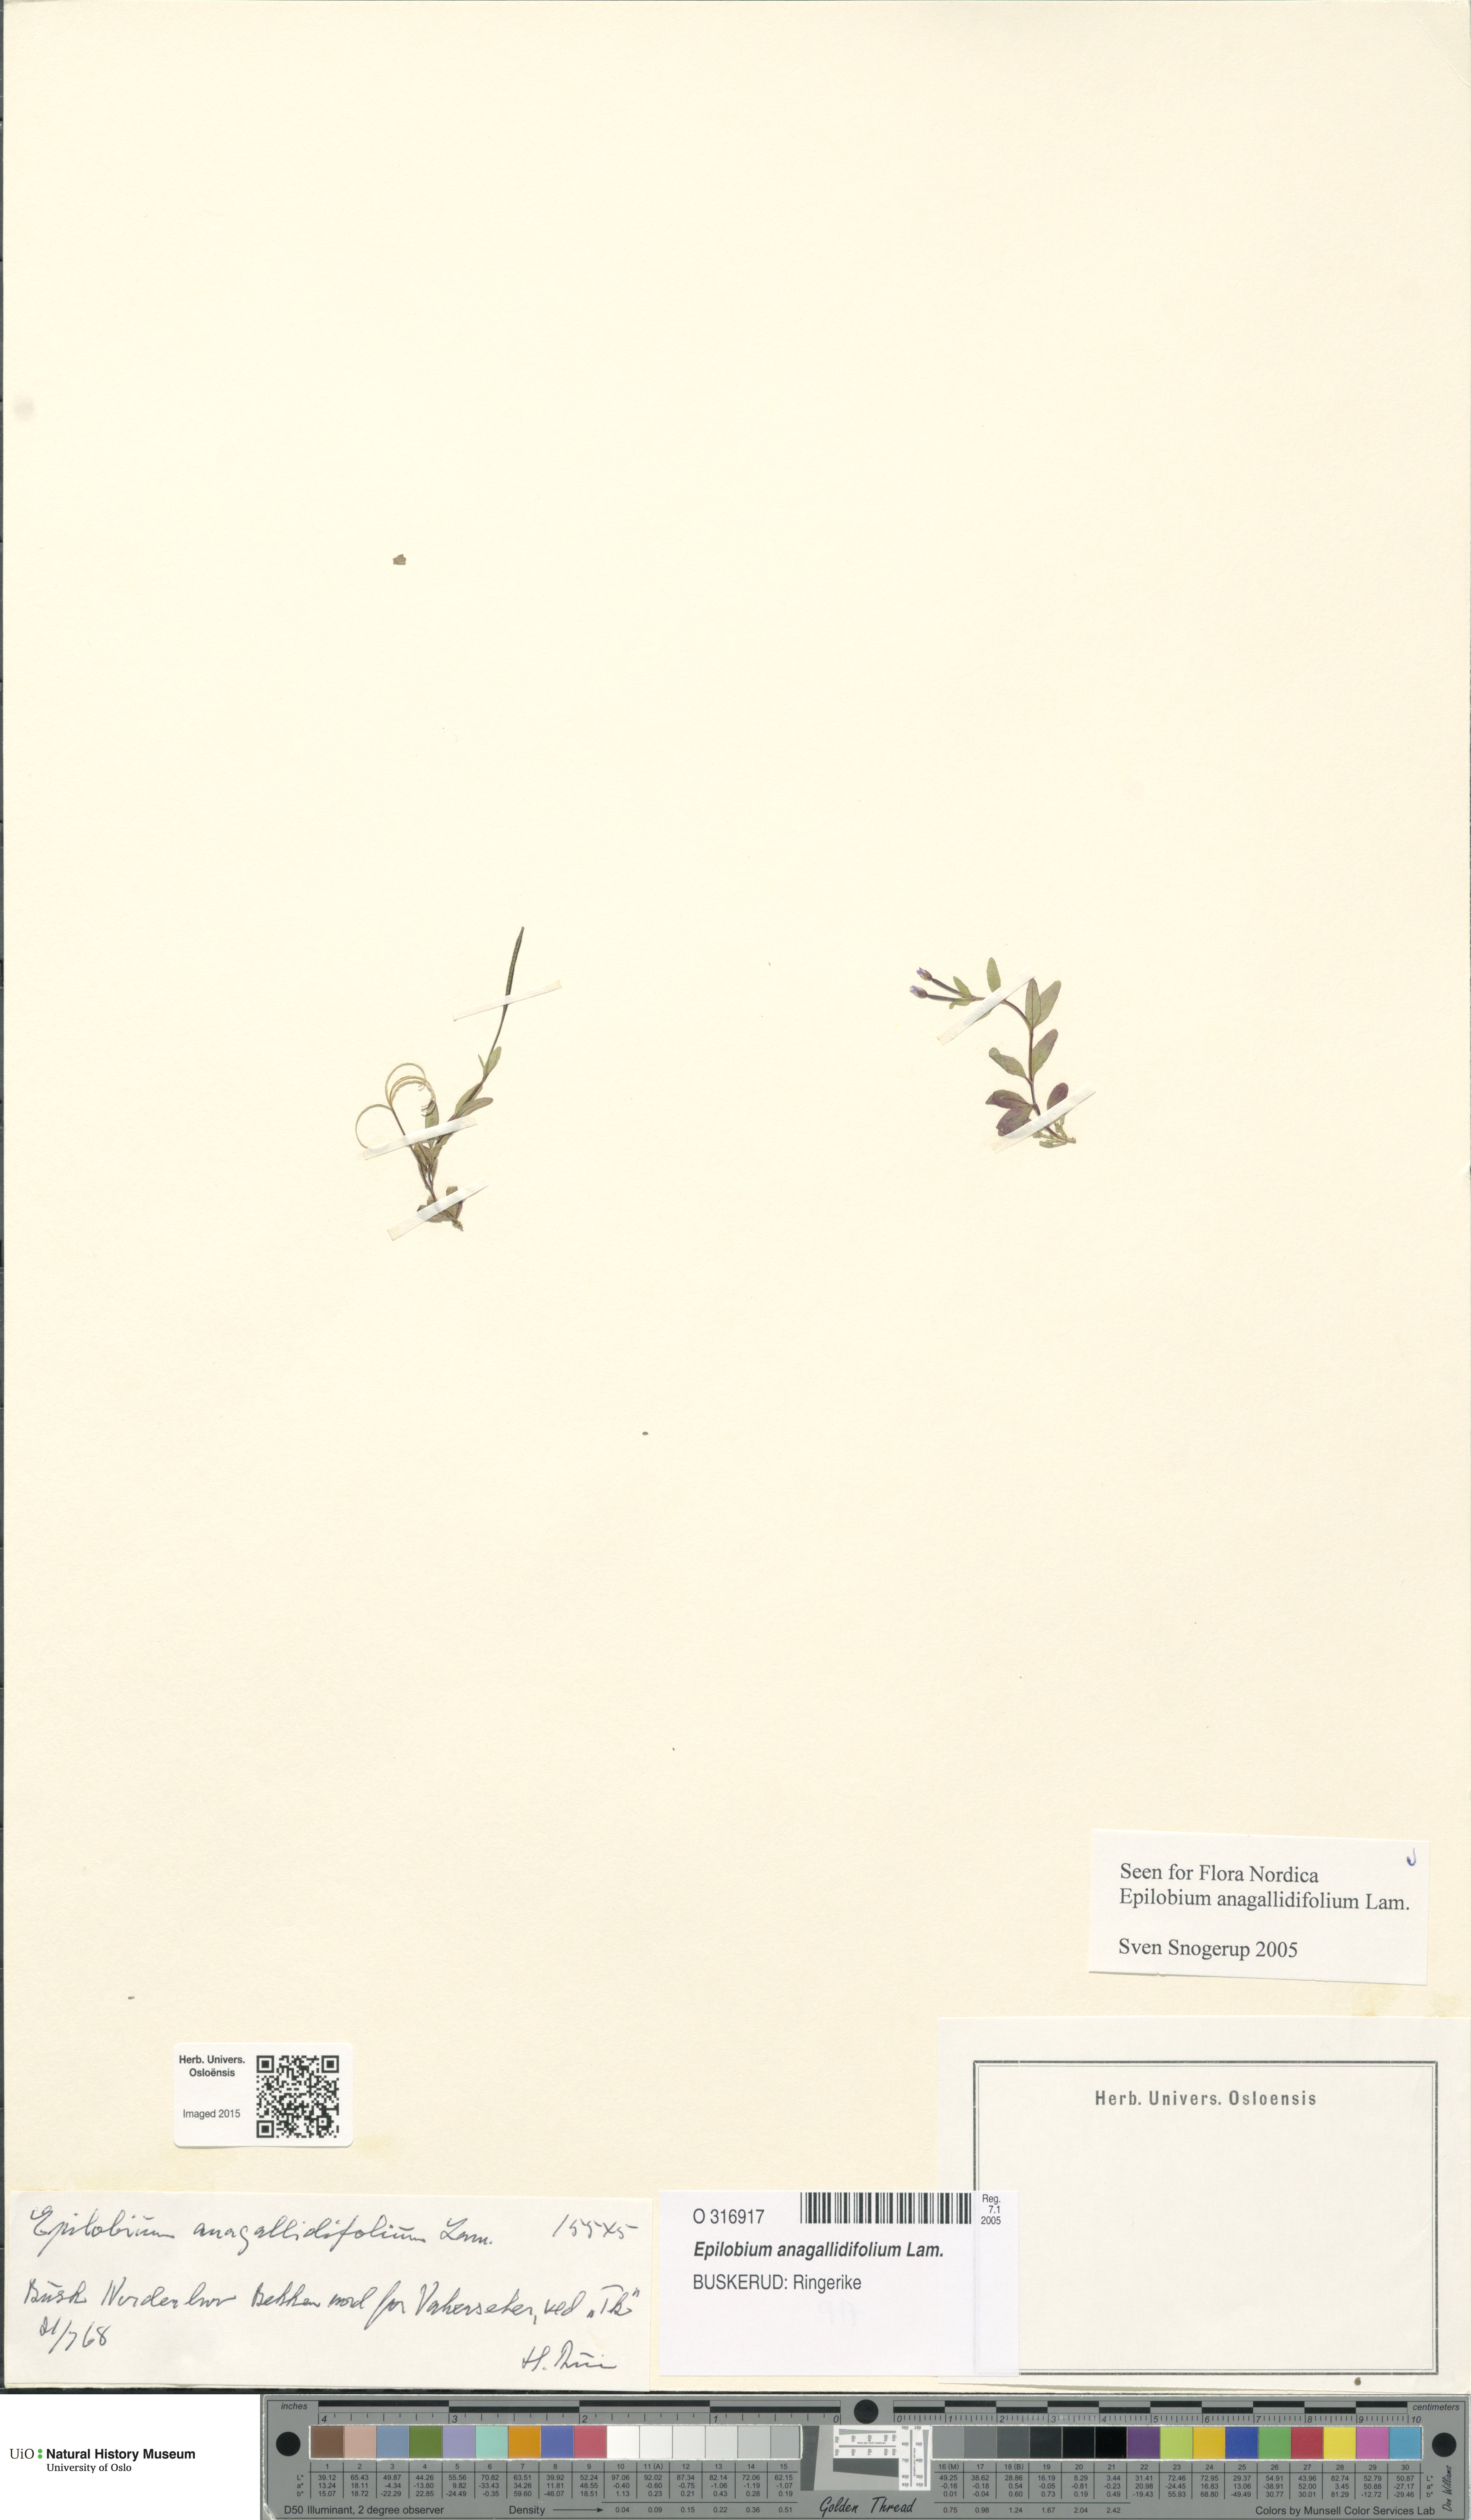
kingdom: Plantae
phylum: Tracheophyta
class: Magnoliopsida
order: Myrtales
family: Onagraceae
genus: Epilobium
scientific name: Epilobium anagallidifolium
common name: Alpine willowherb
